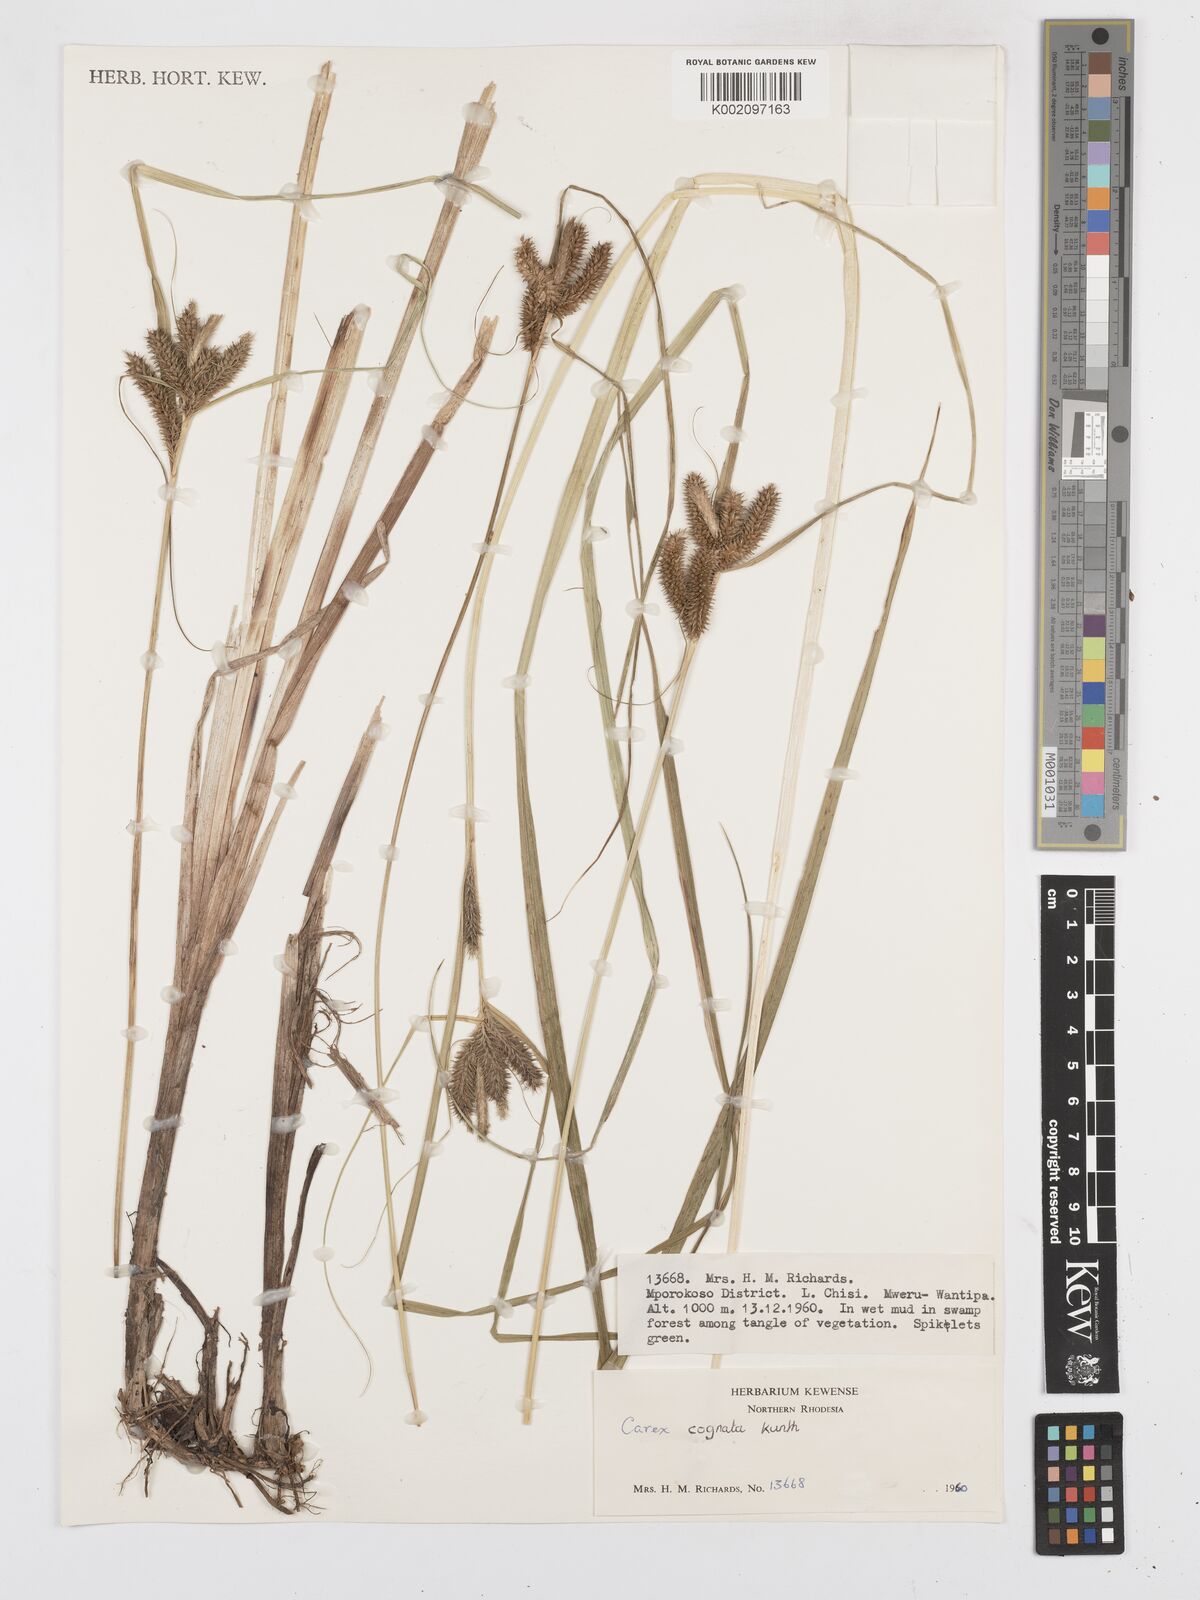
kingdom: Plantae
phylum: Tracheophyta
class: Liliopsida
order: Poales
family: Cyperaceae
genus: Carex
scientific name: Carex congolensis
